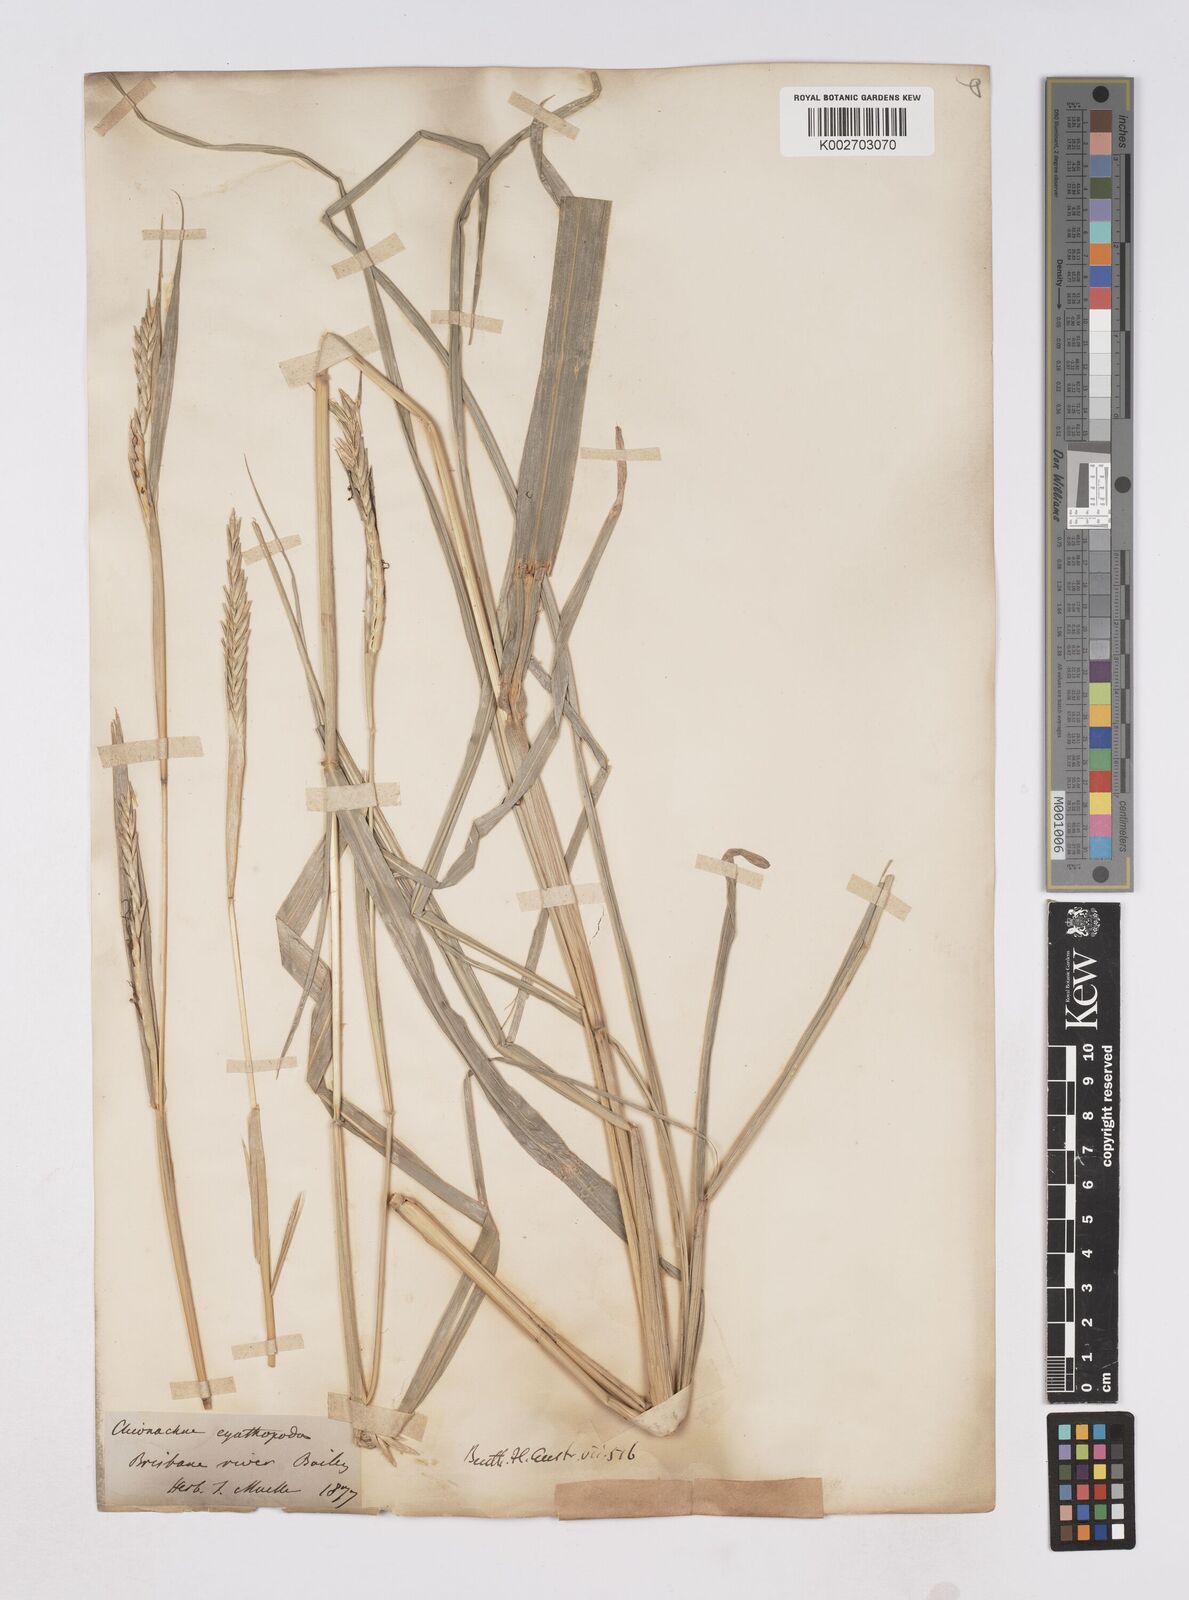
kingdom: Plantae
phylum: Tracheophyta
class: Liliopsida
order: Poales
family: Poaceae
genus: Polytoca
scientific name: Polytoca cyathopoda
